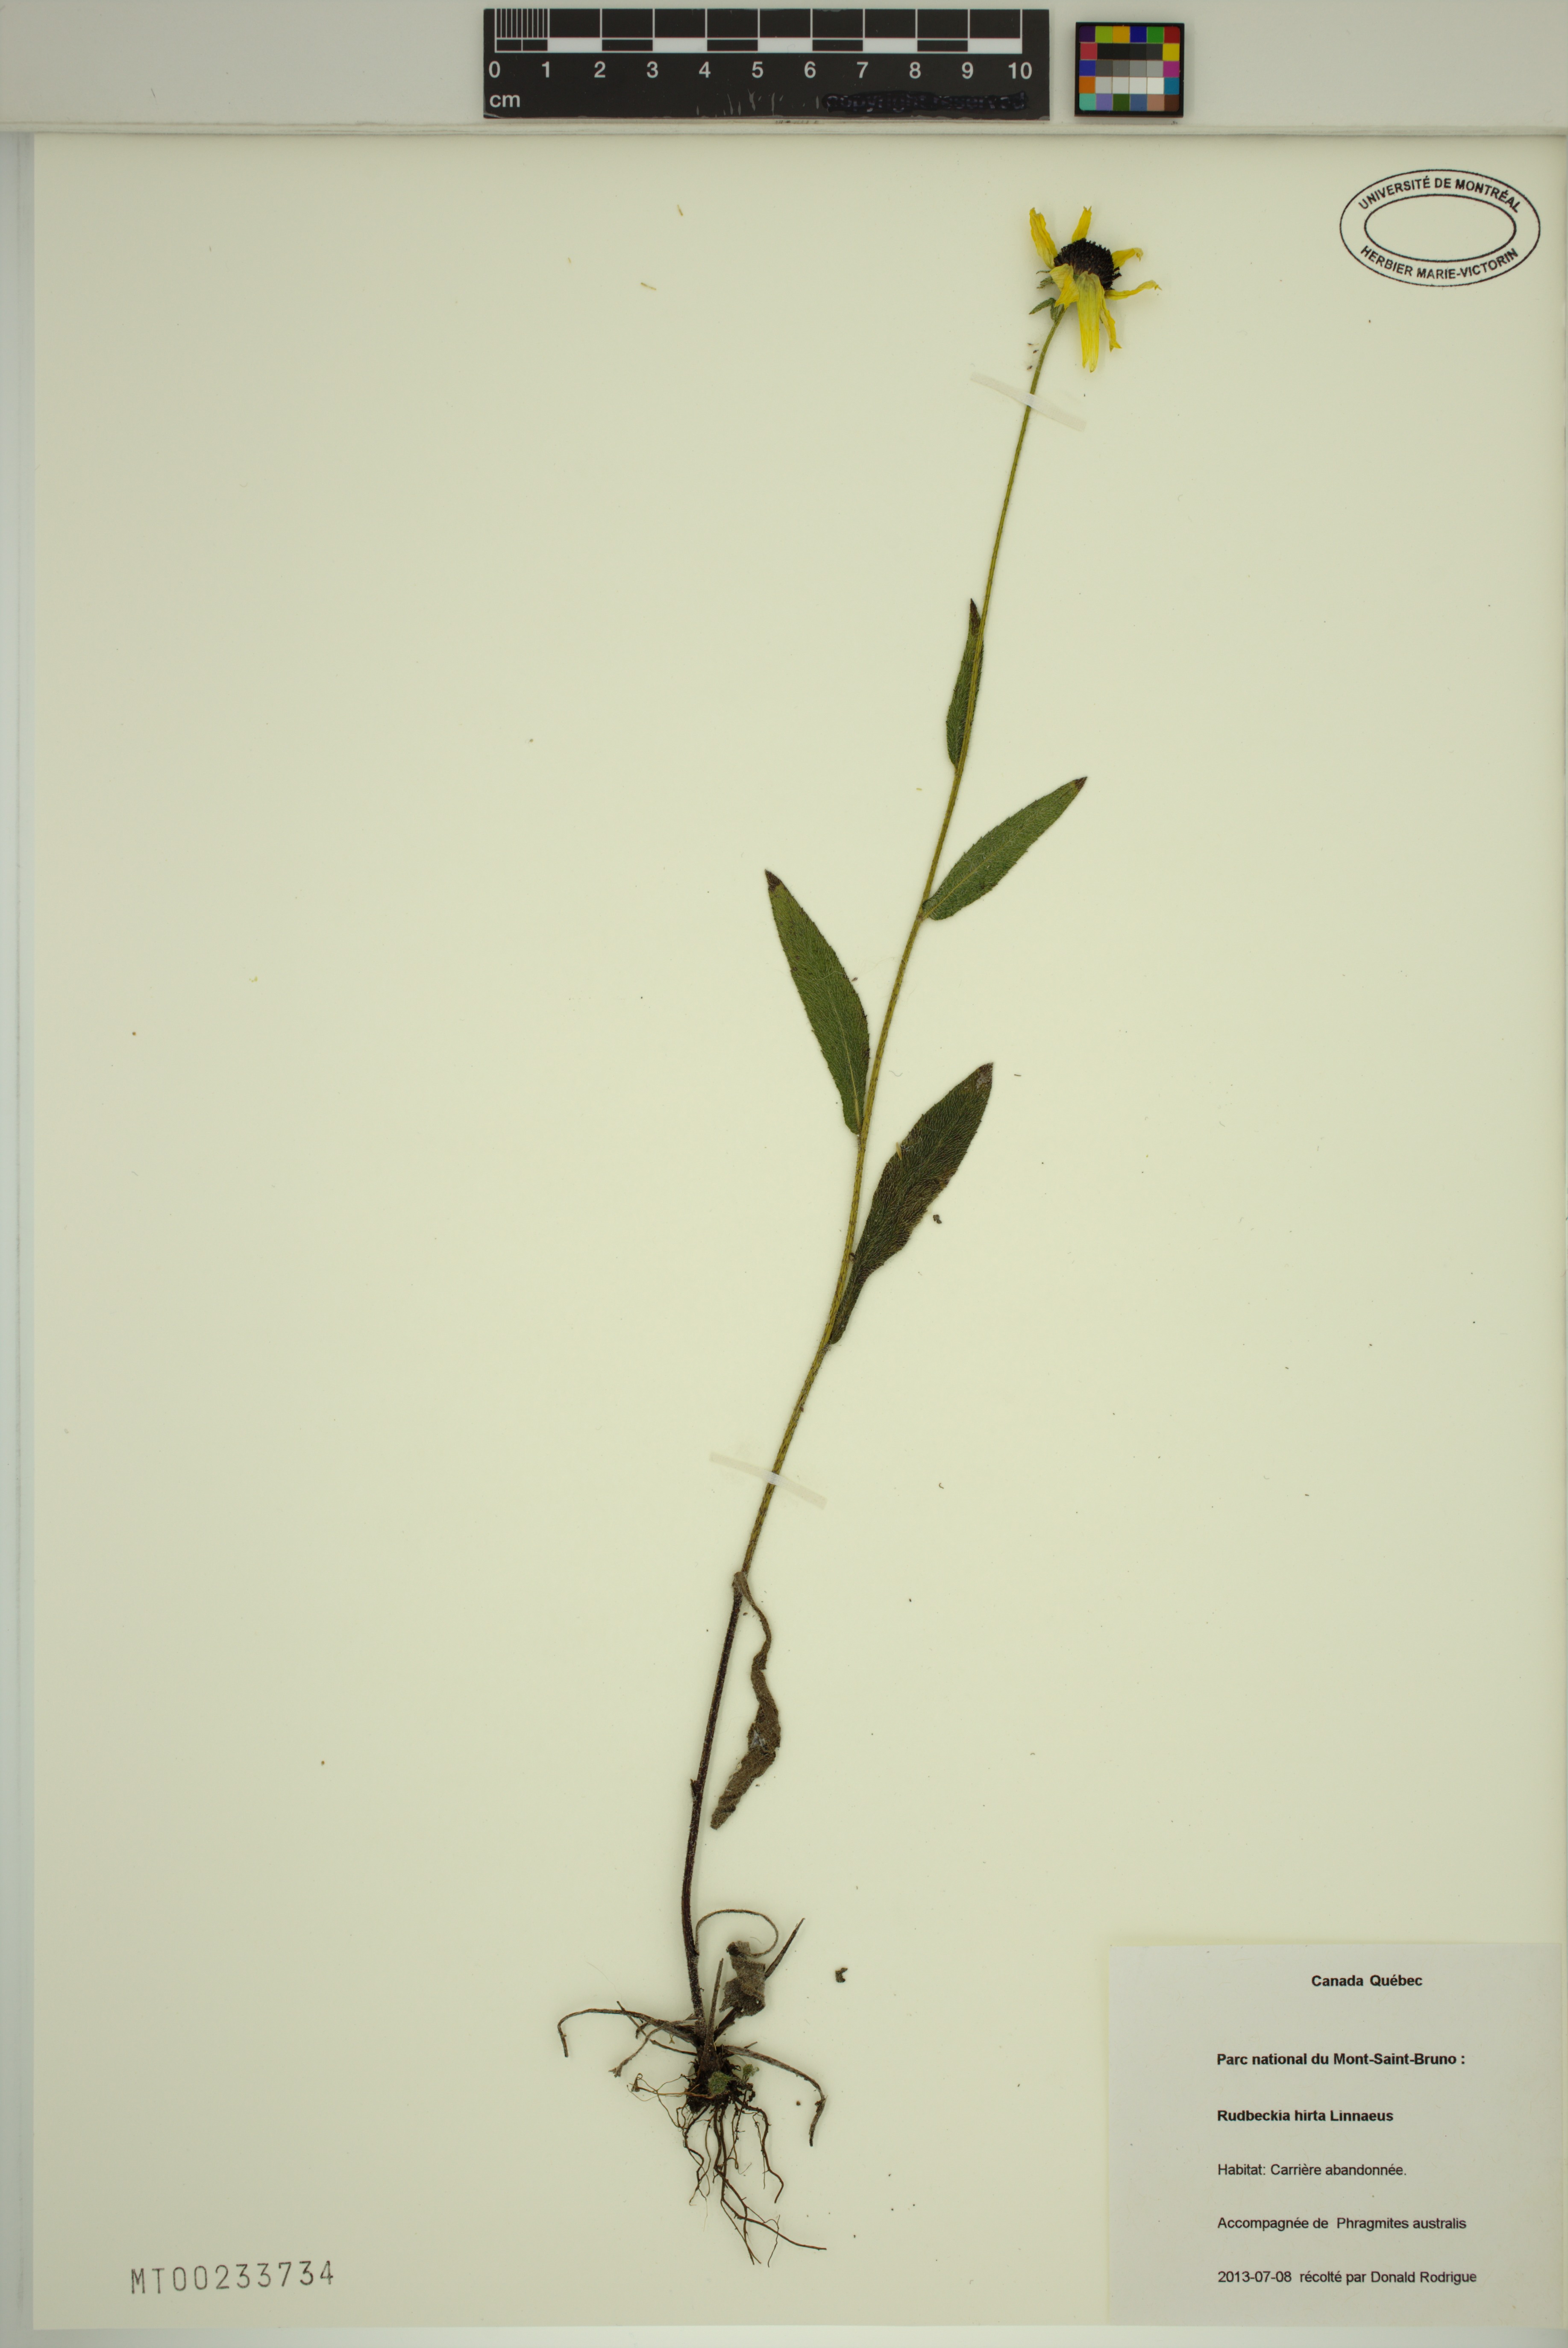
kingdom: Plantae
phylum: Tracheophyta
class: Magnoliopsida
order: Asterales
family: Asteraceae
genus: Rudbeckia
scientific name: Rudbeckia hirta
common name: Black-eyed-susan
